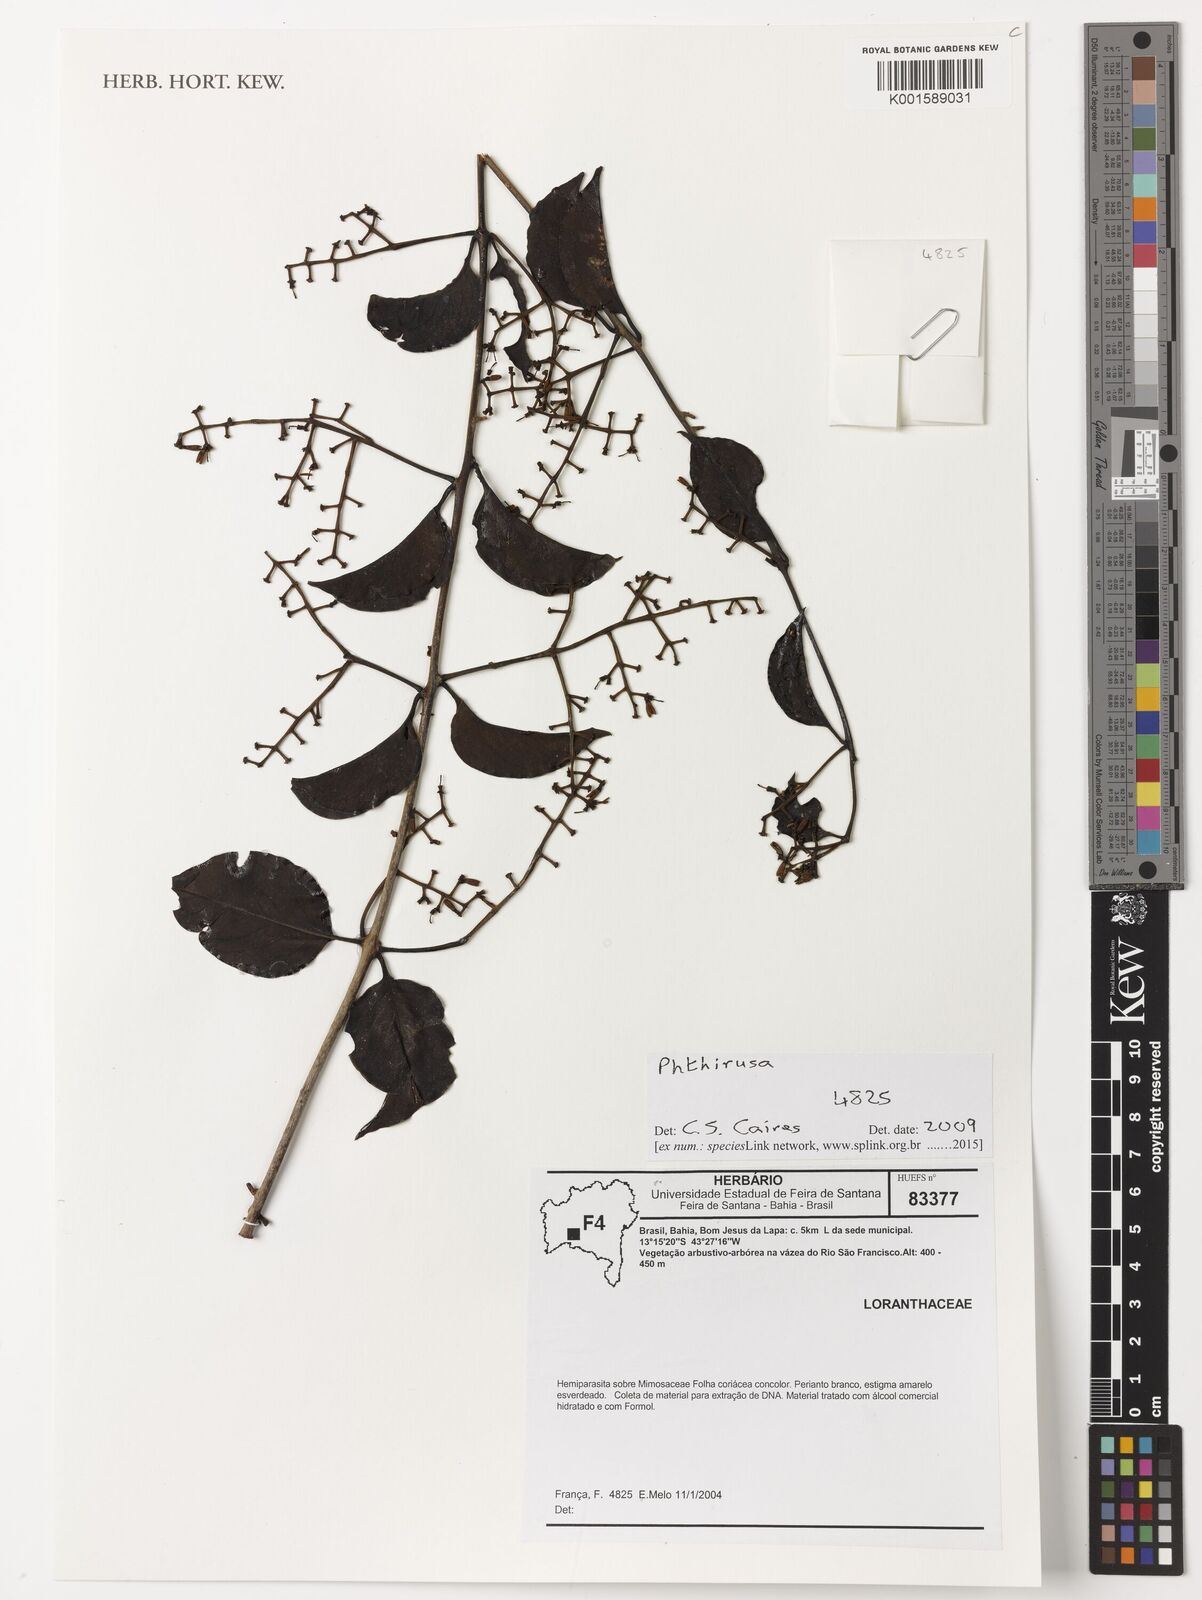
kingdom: Plantae
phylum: Tracheophyta
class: Magnoliopsida
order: Santalales
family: Loranthaceae
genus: Phthirusa
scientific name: Phthirusa
